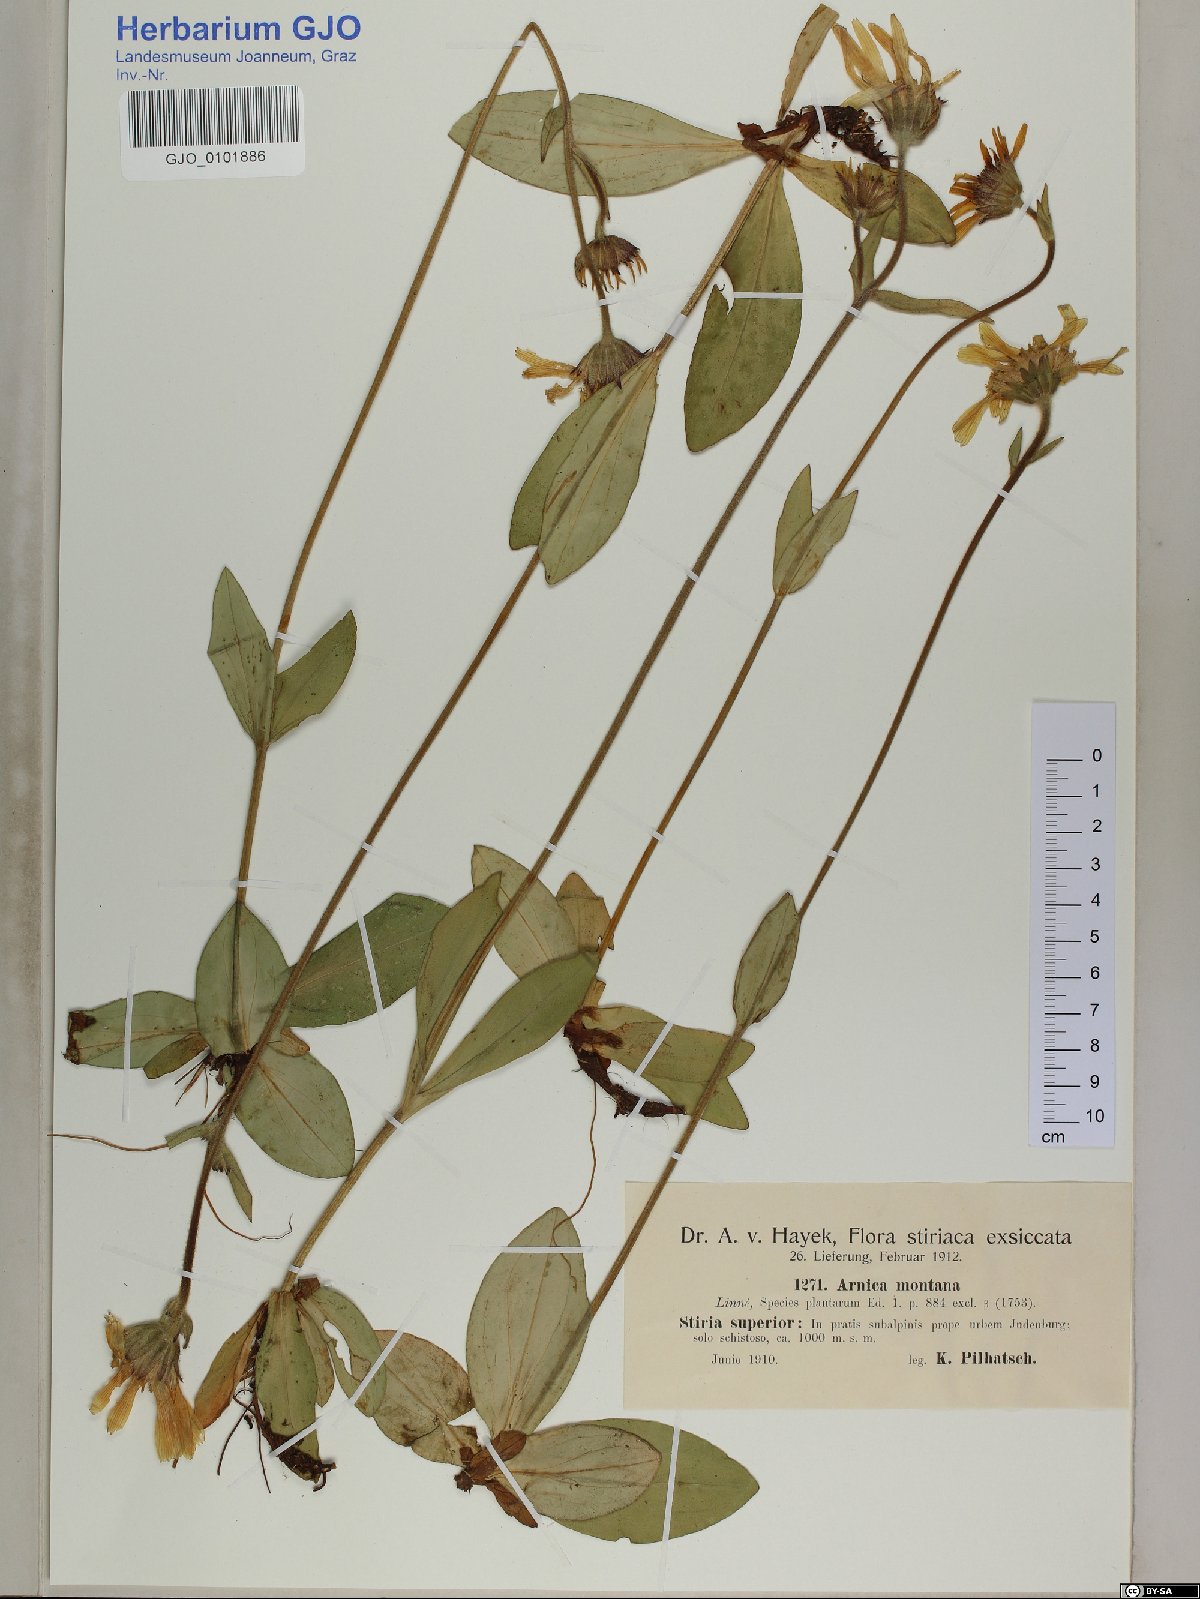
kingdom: Plantae
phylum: Tracheophyta
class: Magnoliopsida
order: Asterales
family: Asteraceae
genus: Arnica
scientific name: Arnica montana
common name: Leopard's bane
